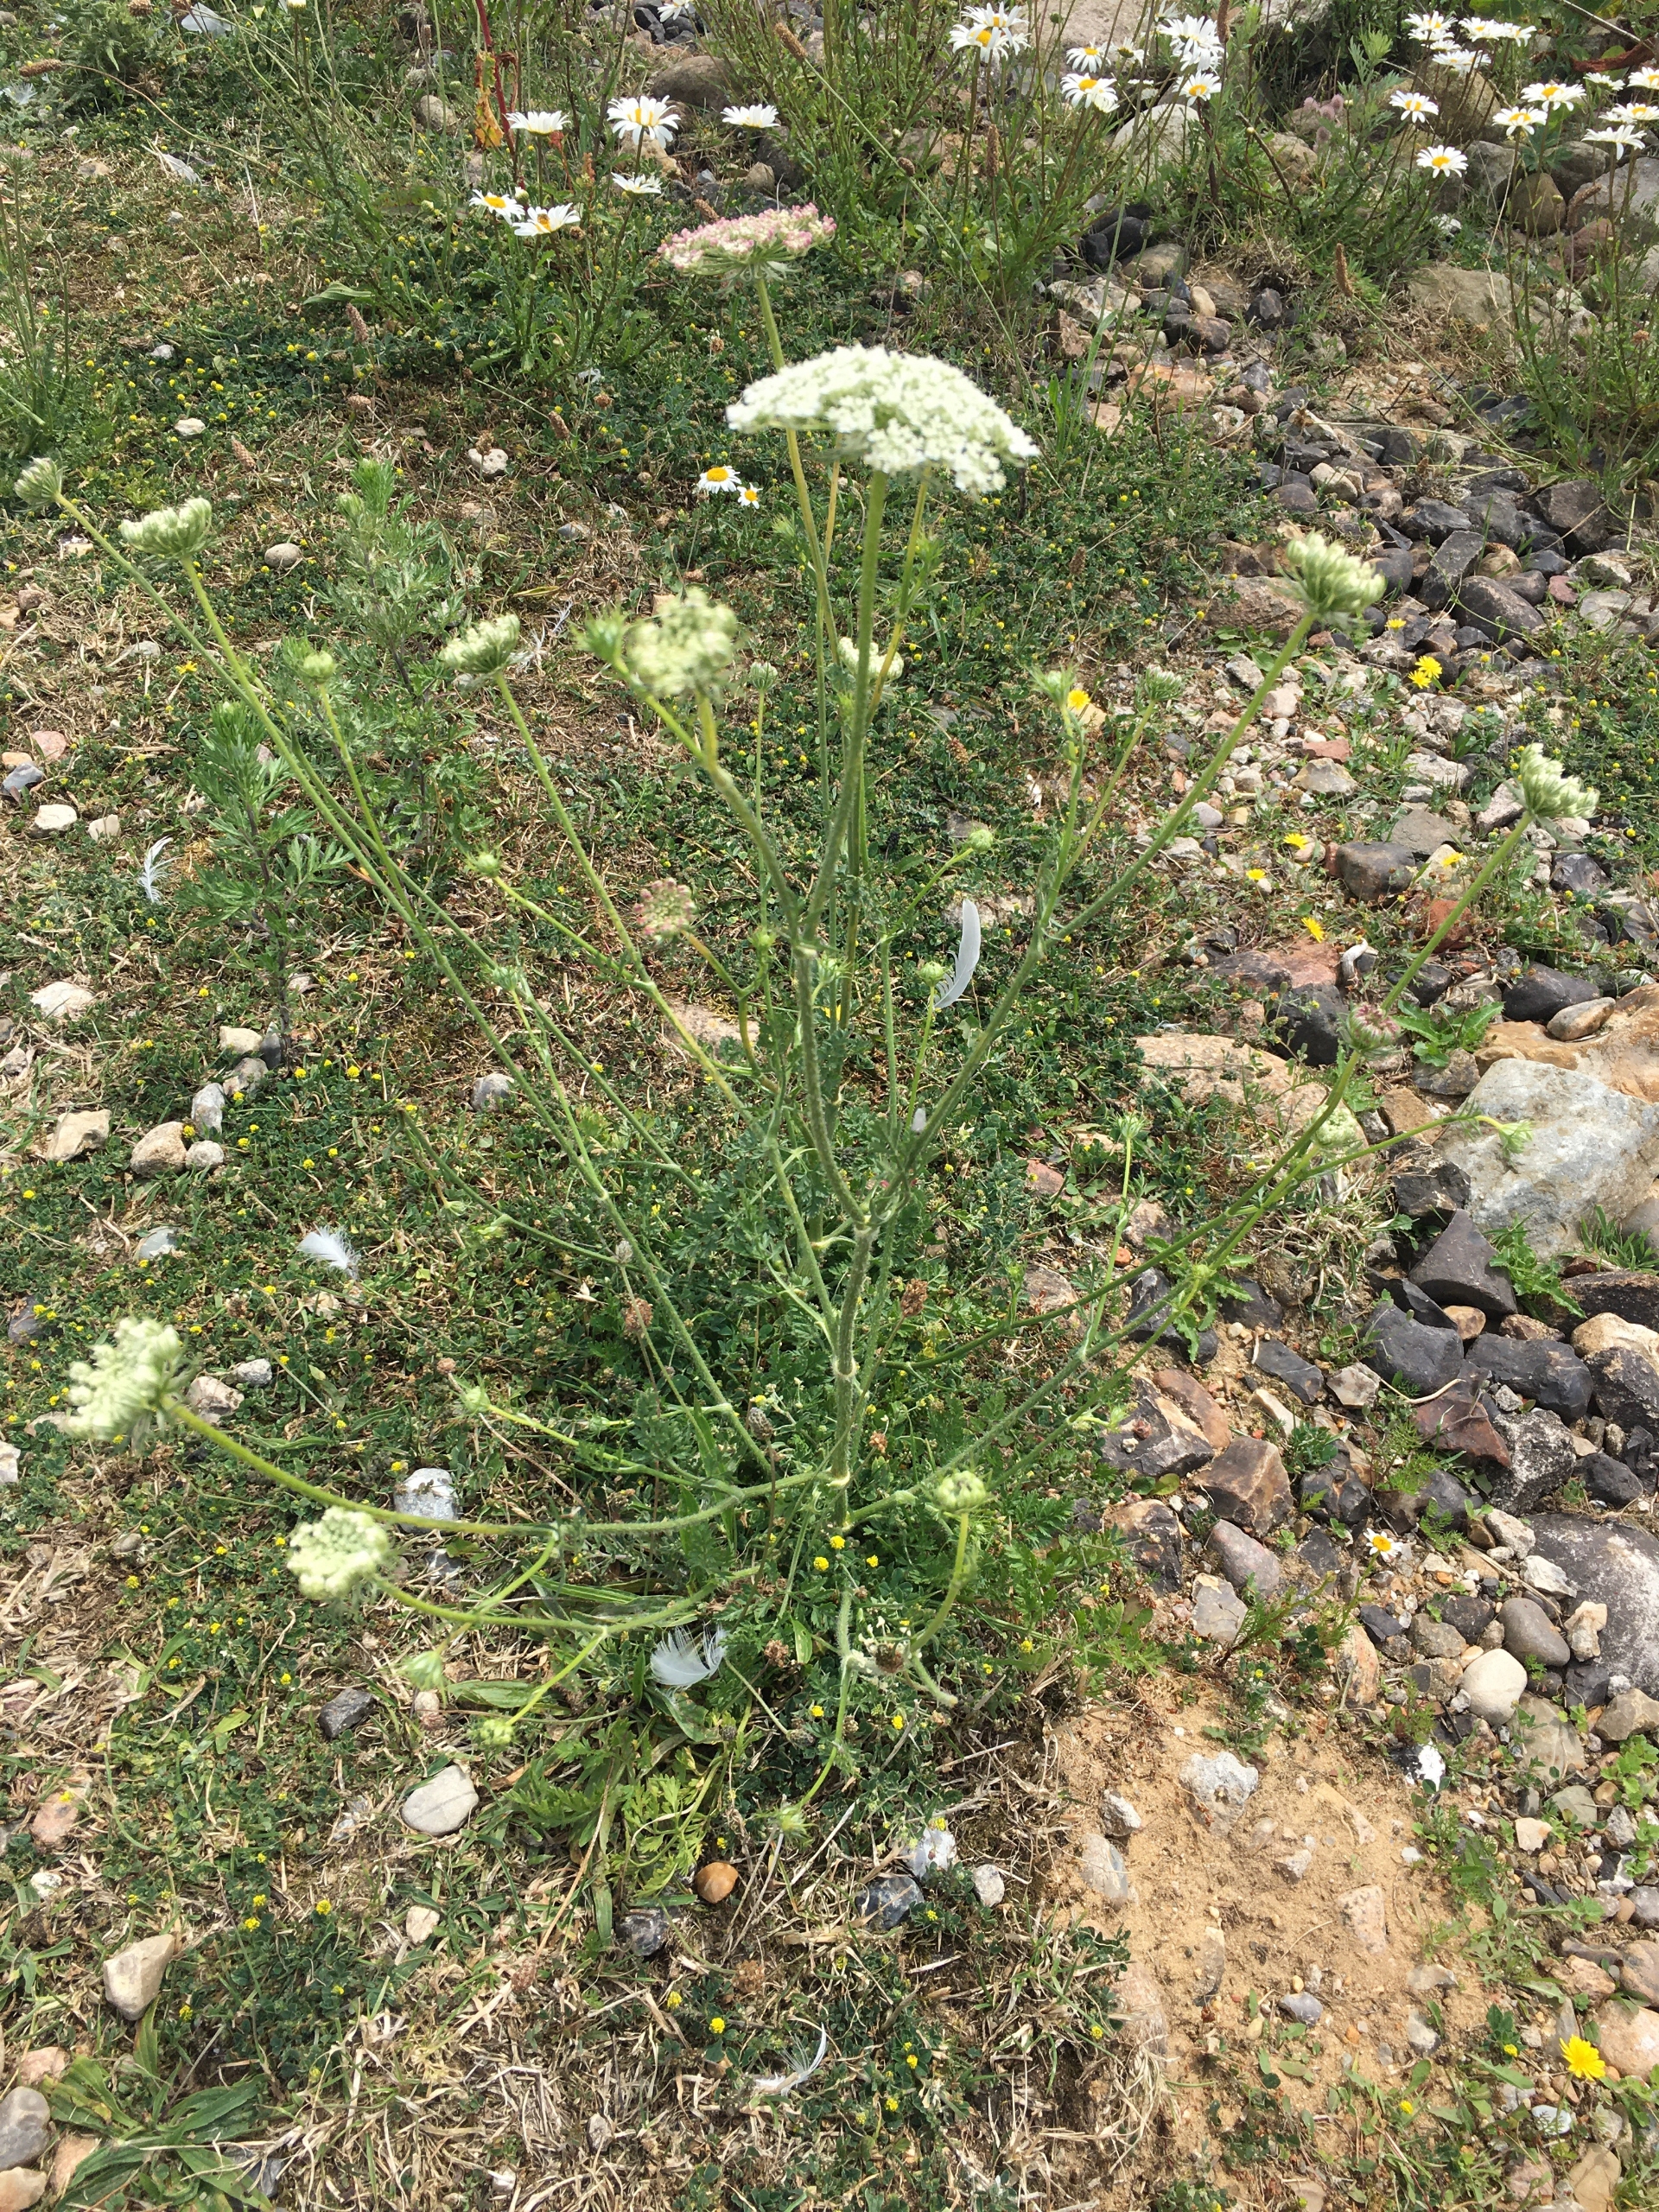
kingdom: Plantae
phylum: Tracheophyta
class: Magnoliopsida
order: Apiales
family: Apiaceae
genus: Daucus
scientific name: Daucus carota
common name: Vild gulerod
